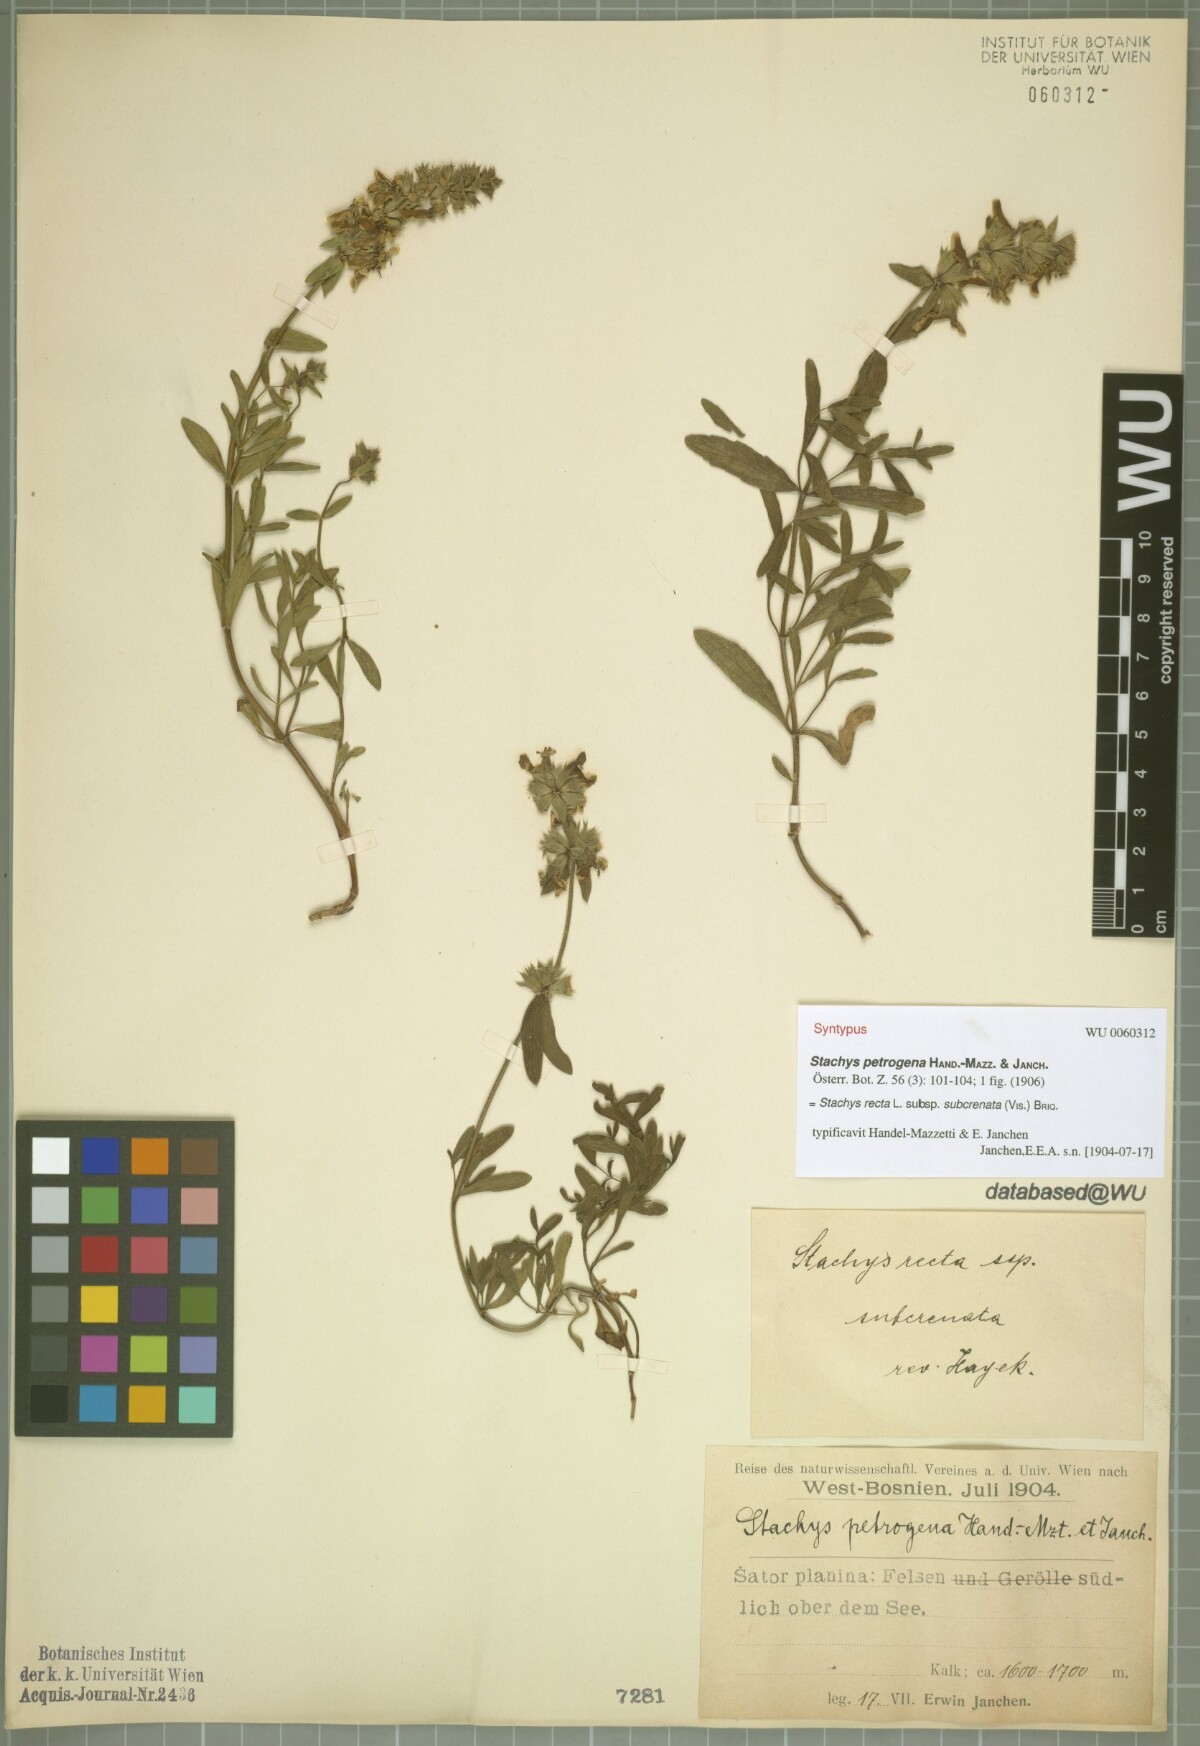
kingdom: Plantae
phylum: Tracheophyta
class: Magnoliopsida
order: Lamiales
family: Lamiaceae
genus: Stachys
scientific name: Stachys recta
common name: Perennial yellow-woundwort
